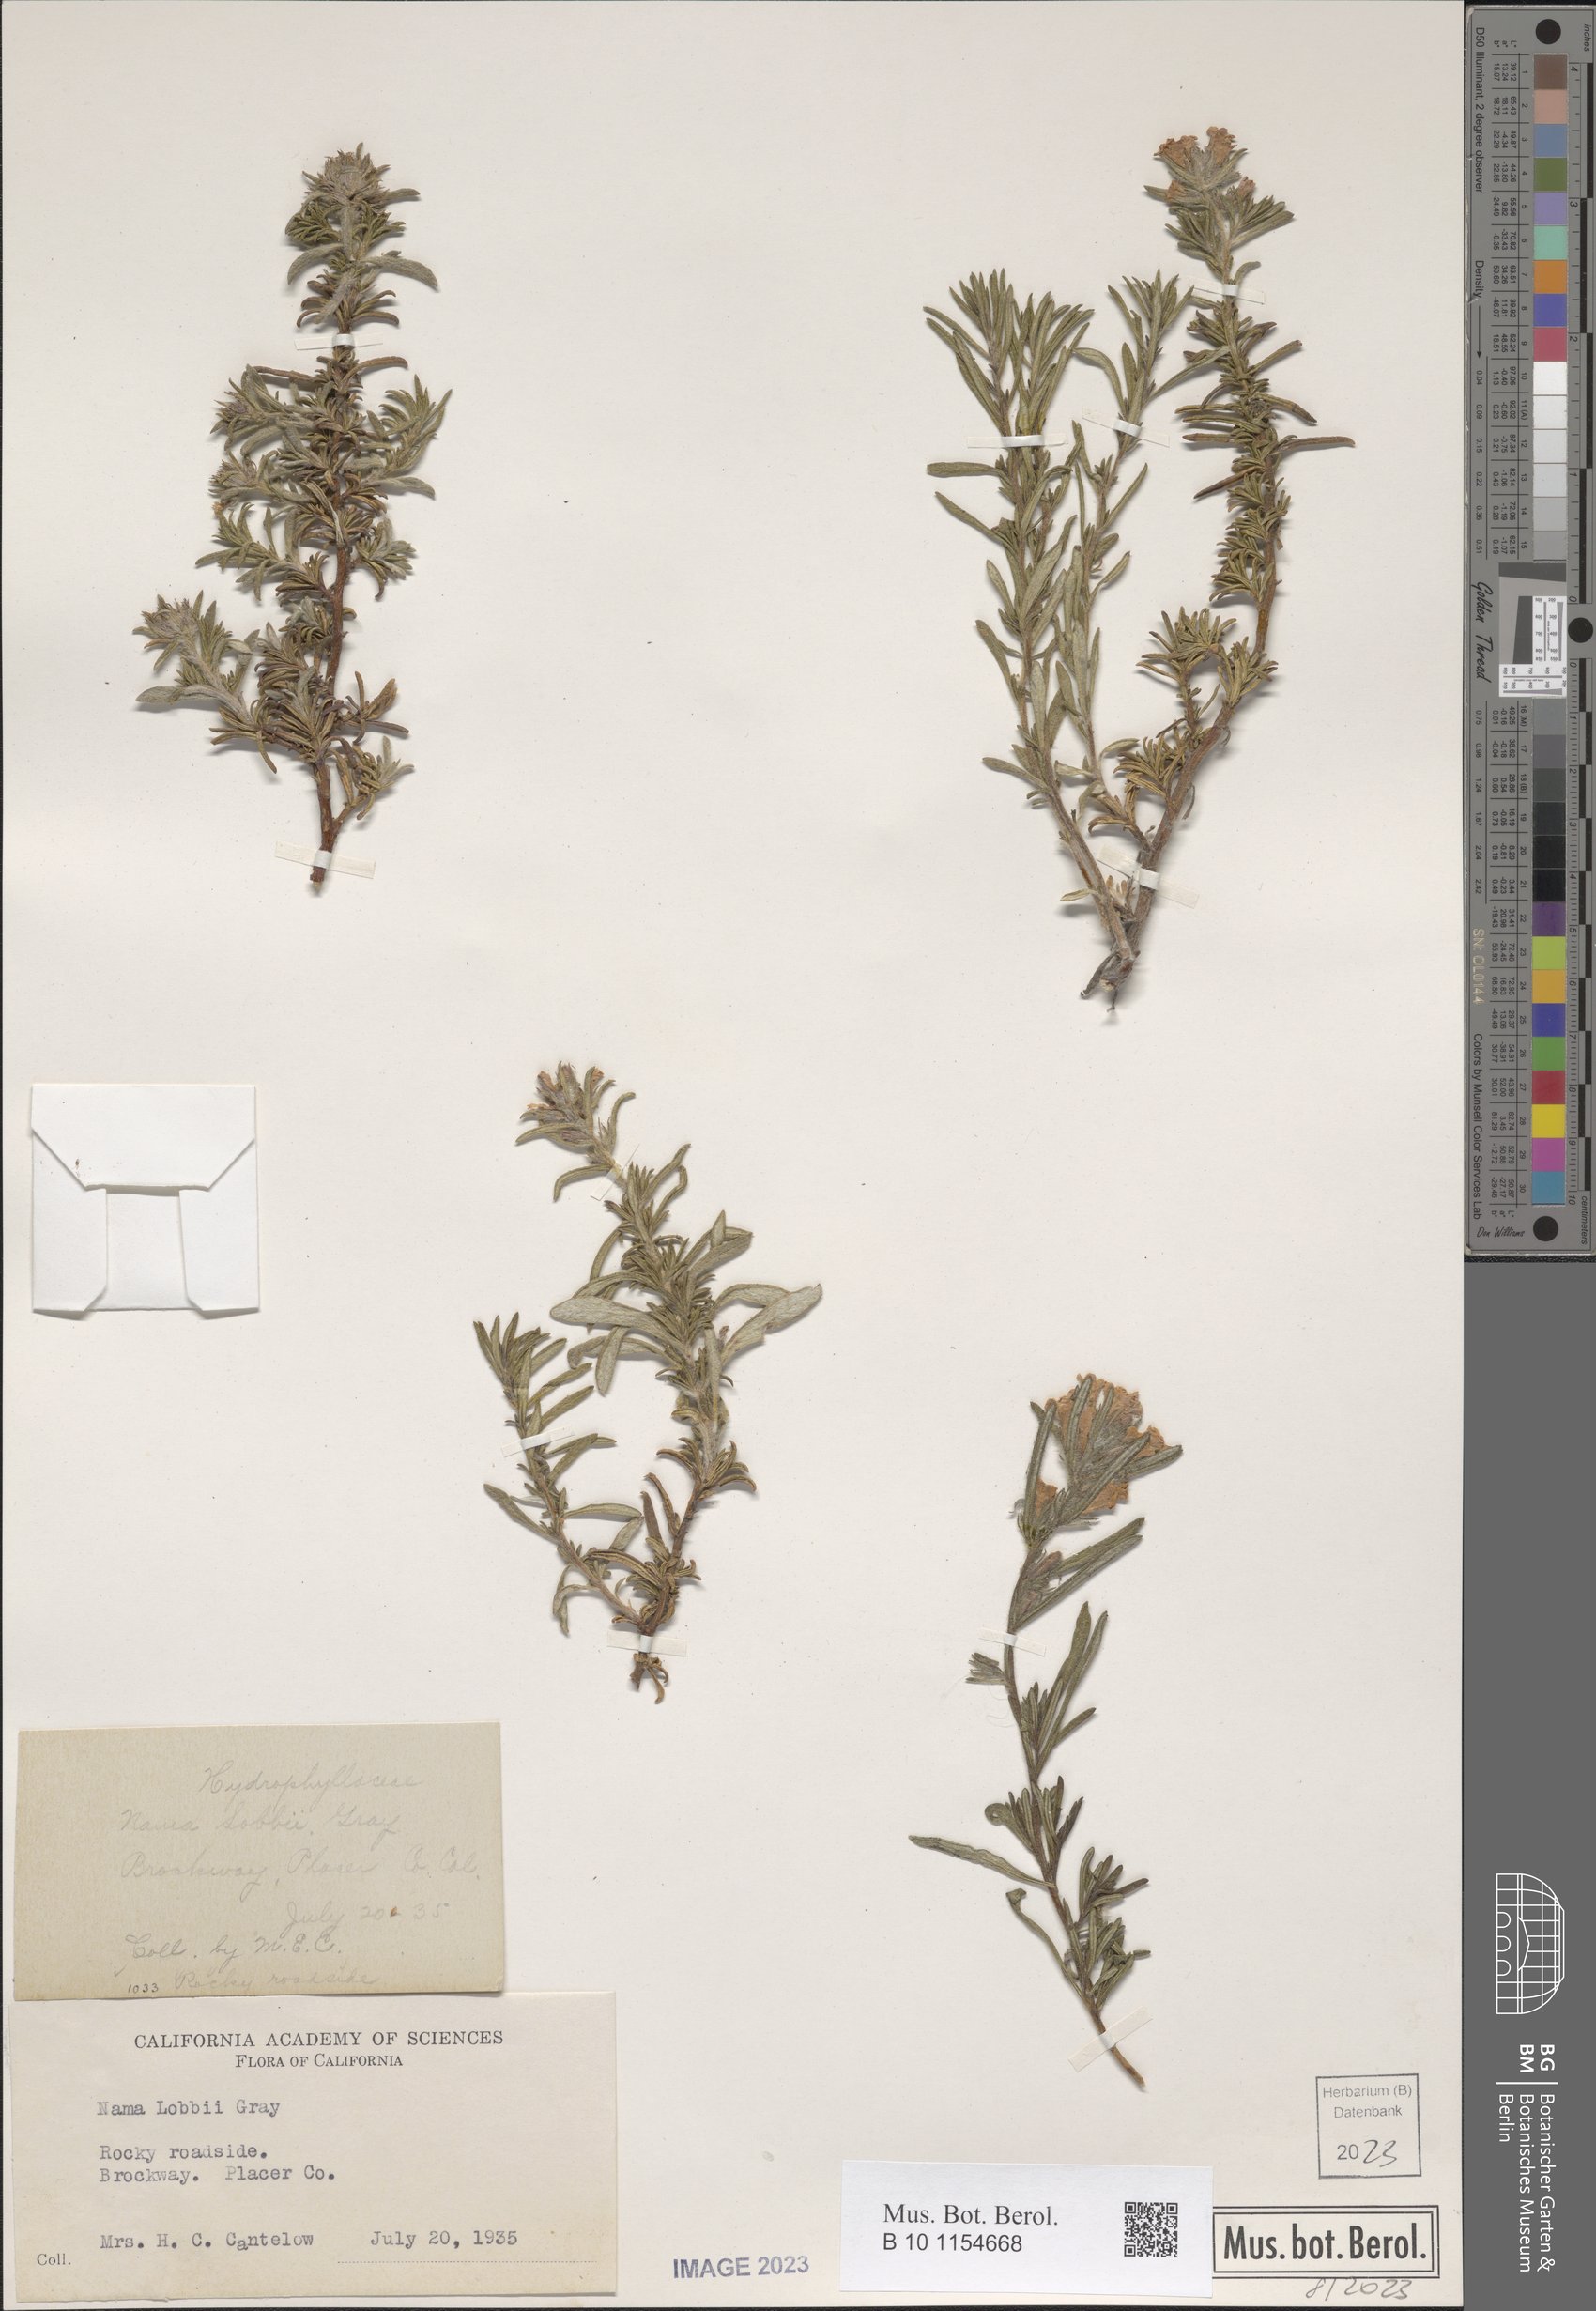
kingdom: Plantae
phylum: Tracheophyta
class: Magnoliopsida
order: Boraginales
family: Namaceae
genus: Nama
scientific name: Nama lobbii
